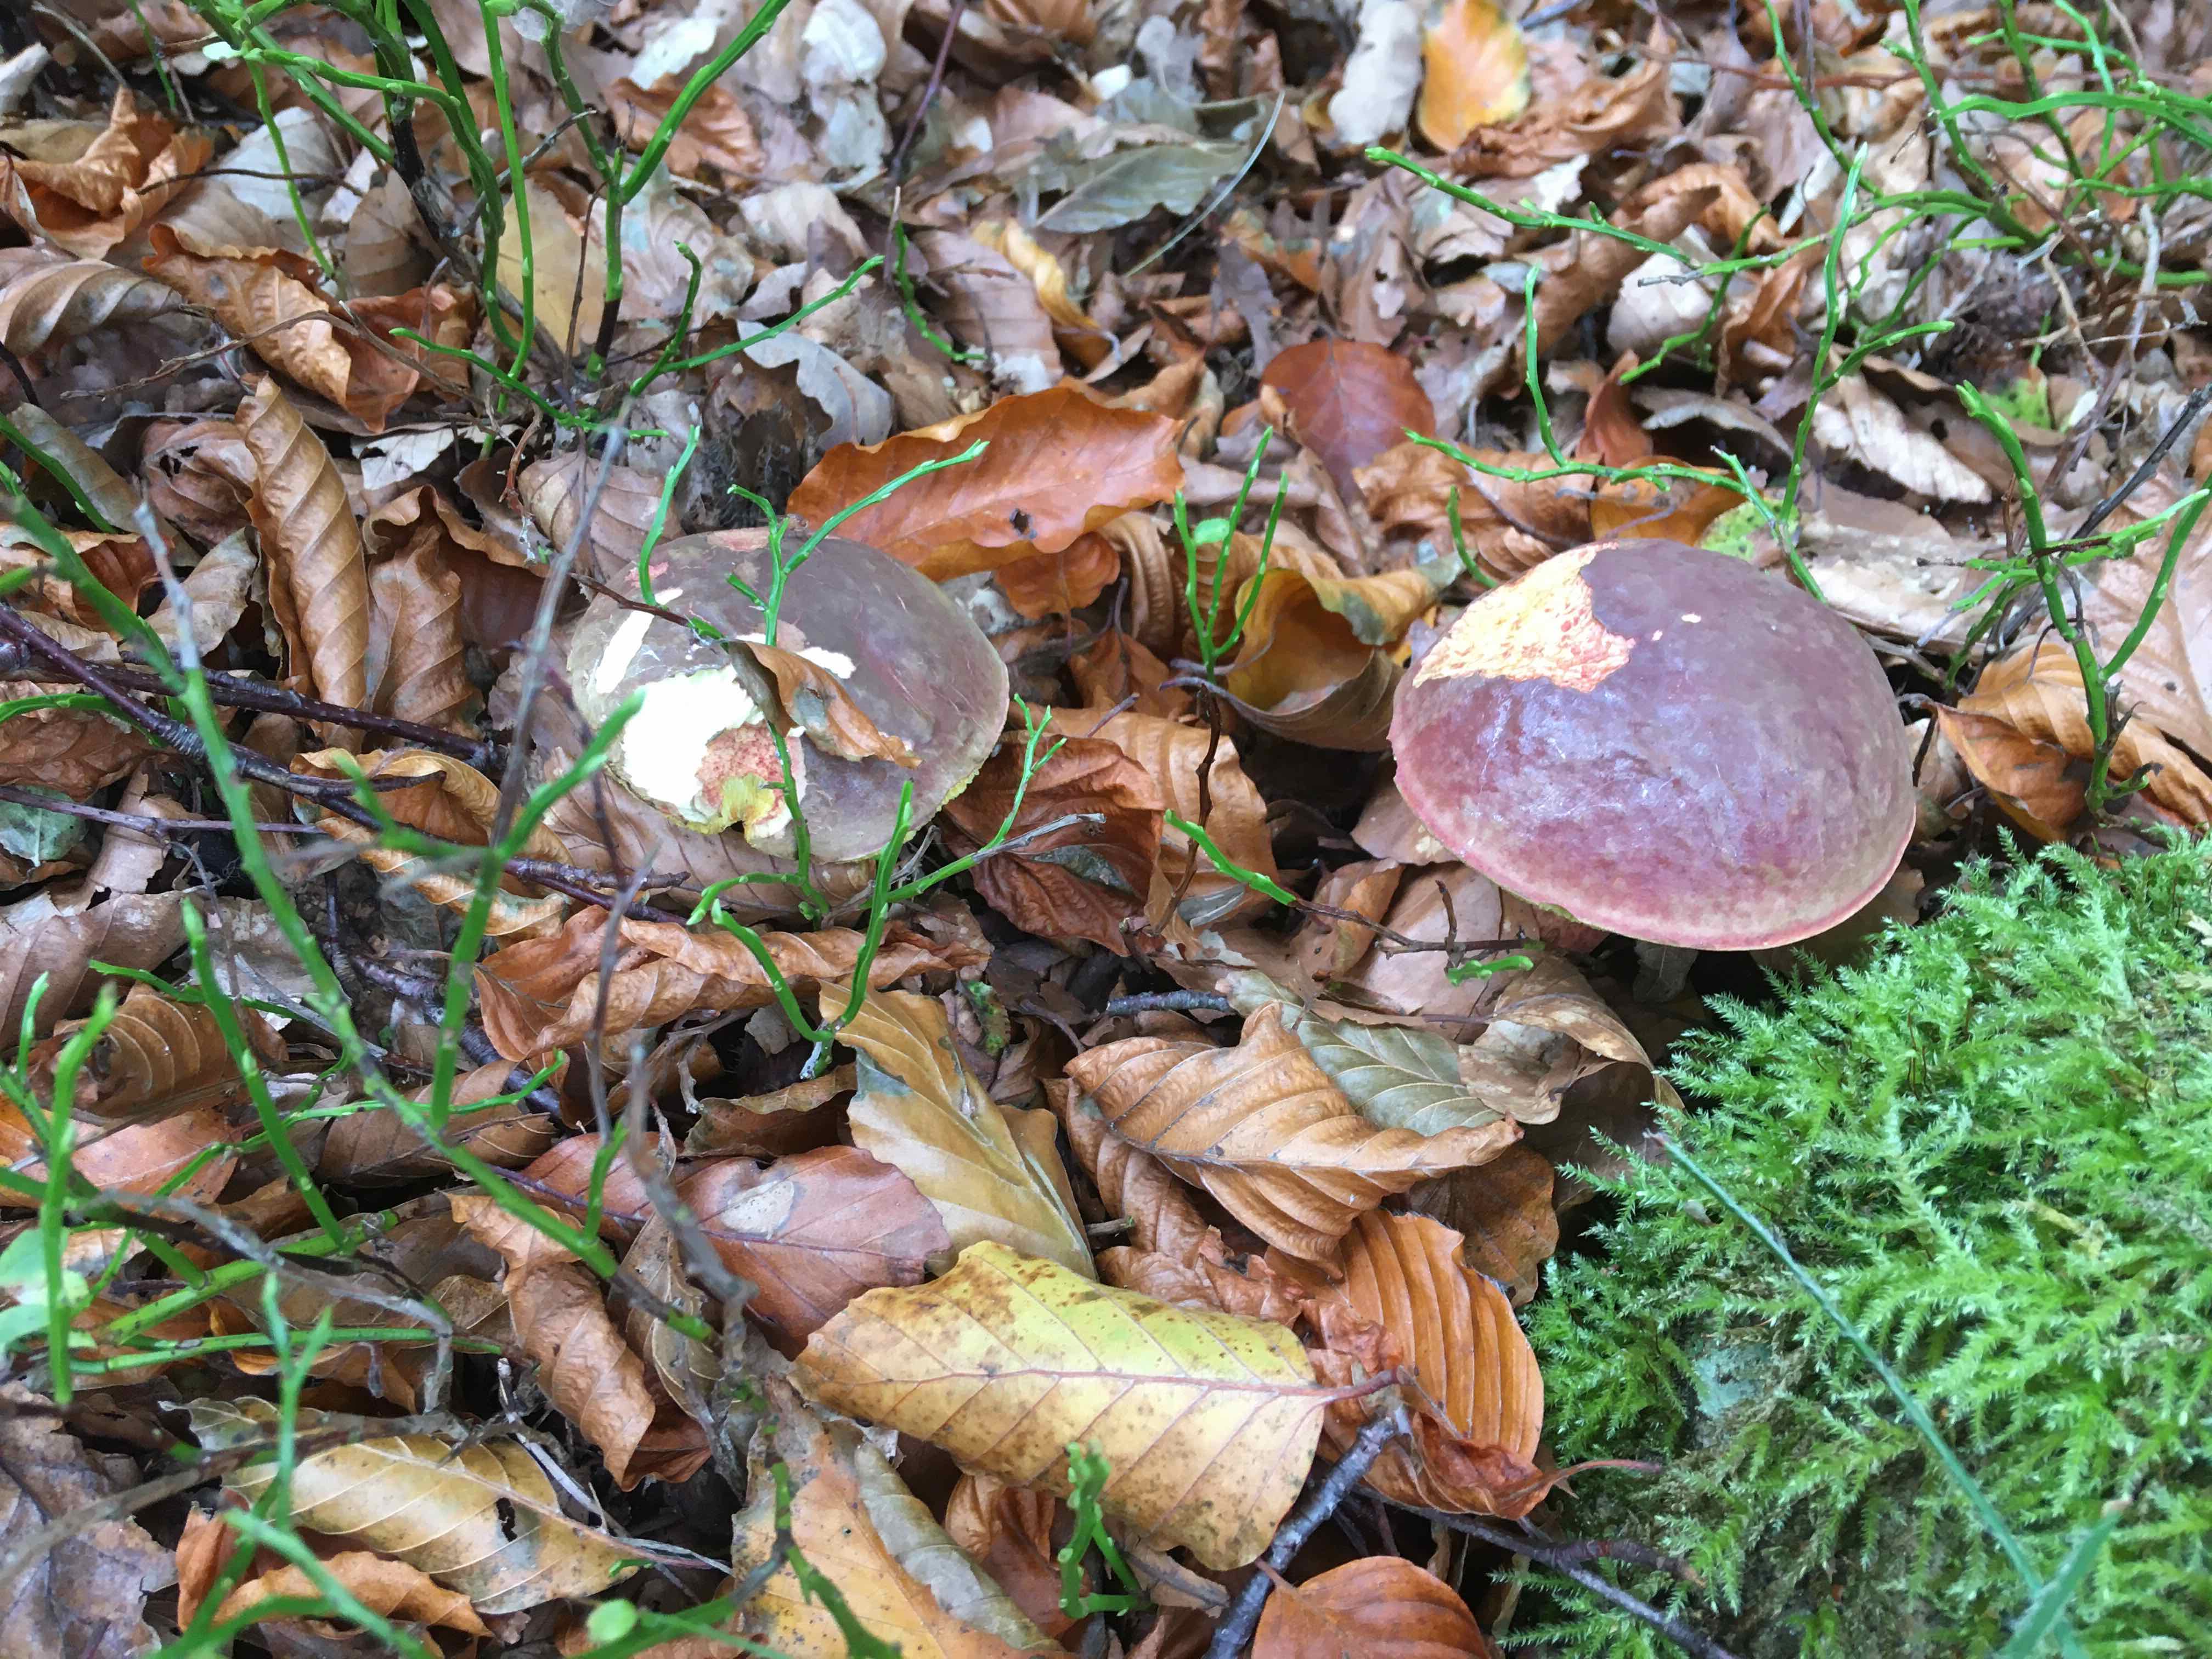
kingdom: Fungi
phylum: Basidiomycota
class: Agaricomycetes
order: Boletales
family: Boletaceae
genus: Xerocomellus
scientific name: Xerocomellus pruinatus
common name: dugget rørhat
